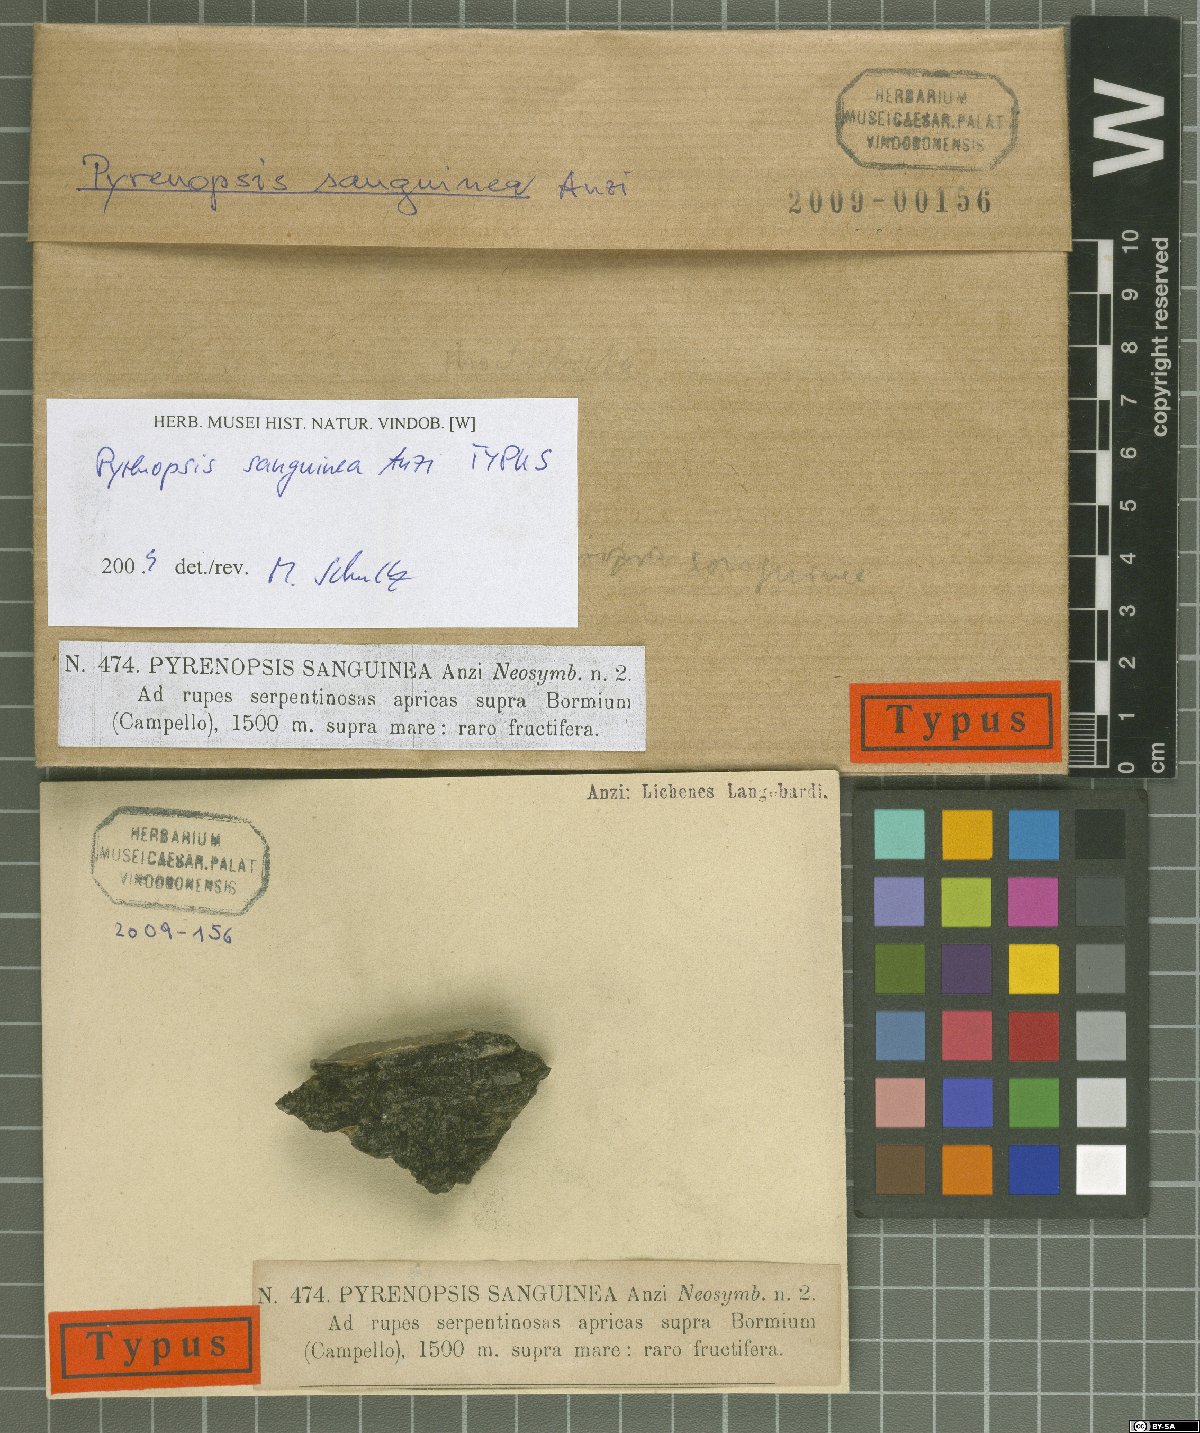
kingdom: Fungi
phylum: Ascomycota
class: Lichinomycetes
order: Lichinales
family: Lichinaceae
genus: Pyrenopsis
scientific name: Pyrenopsis sanguinea
